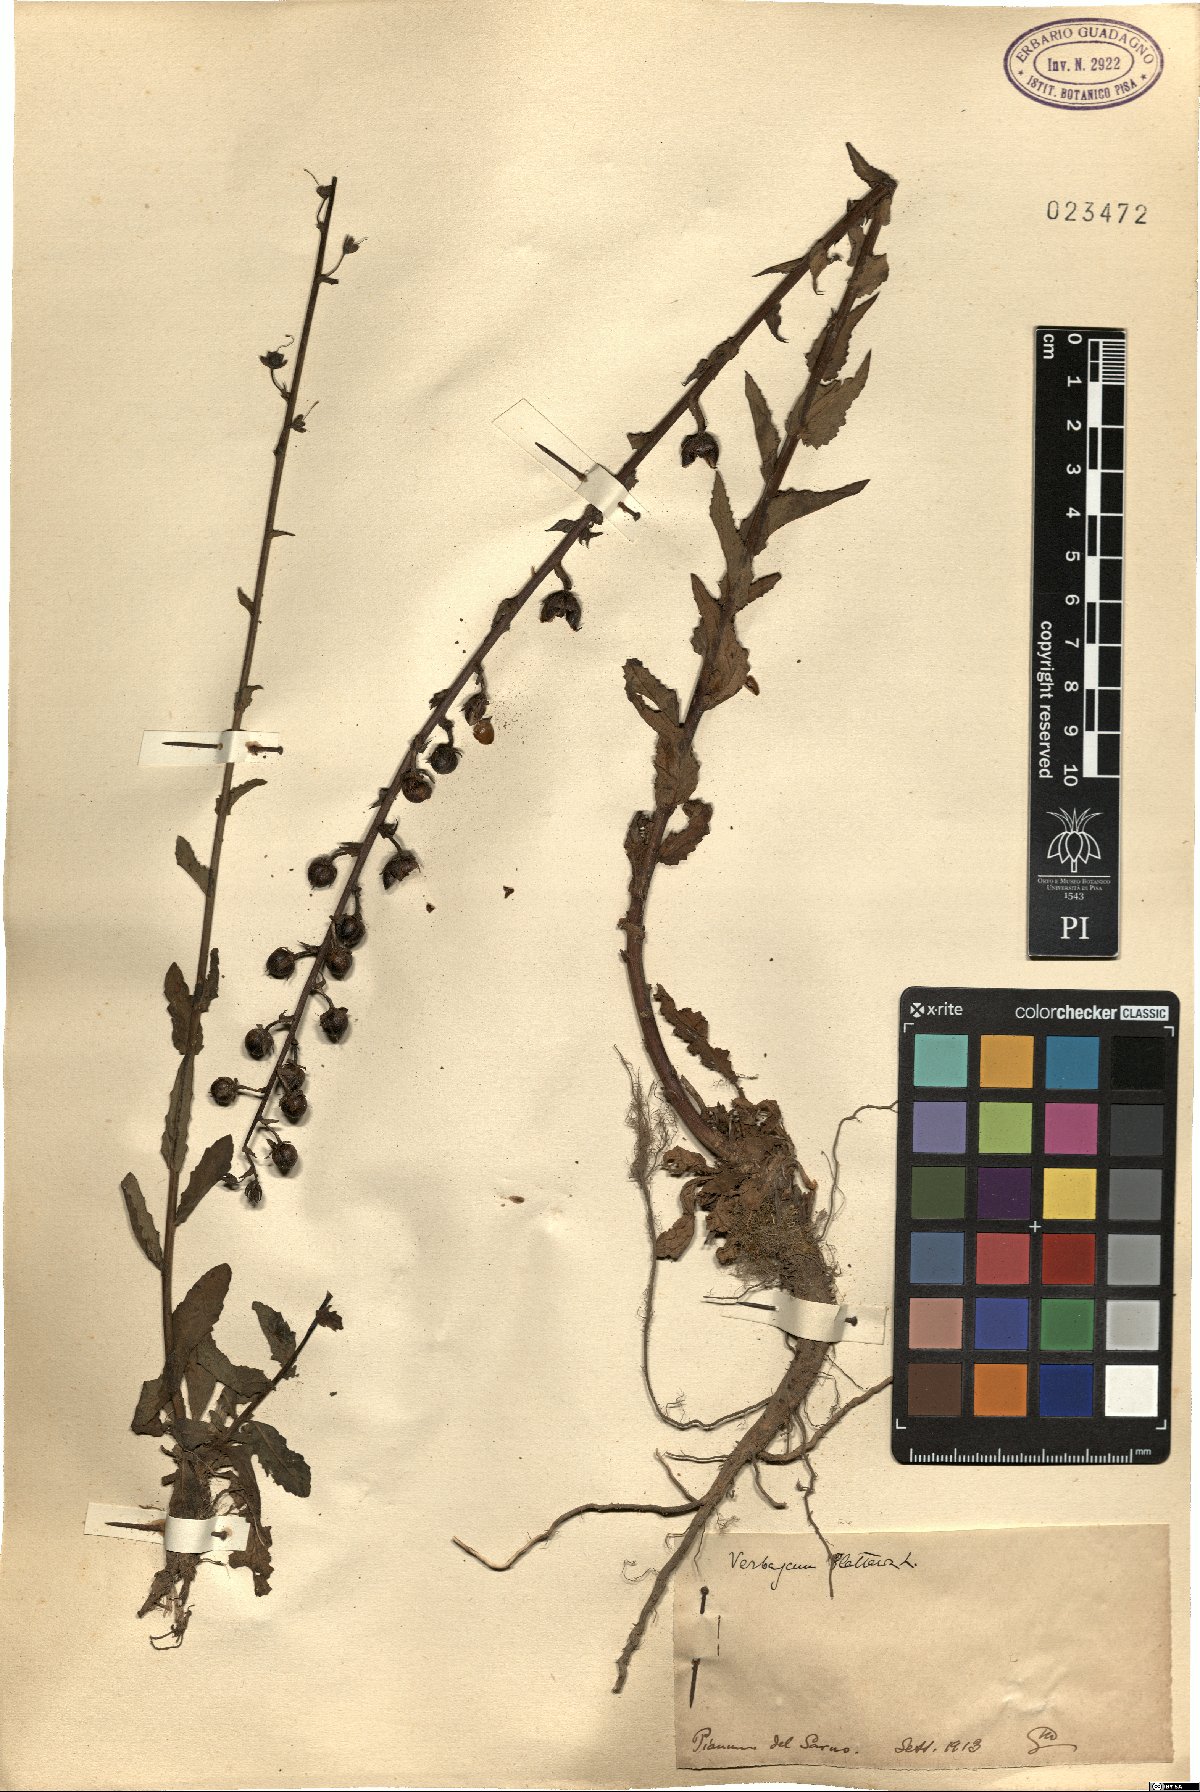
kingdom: Plantae
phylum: Tracheophyta
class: Magnoliopsida
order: Lamiales
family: Scrophulariaceae
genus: Verbascum
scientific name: Verbascum blattaria
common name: Moth mullein
